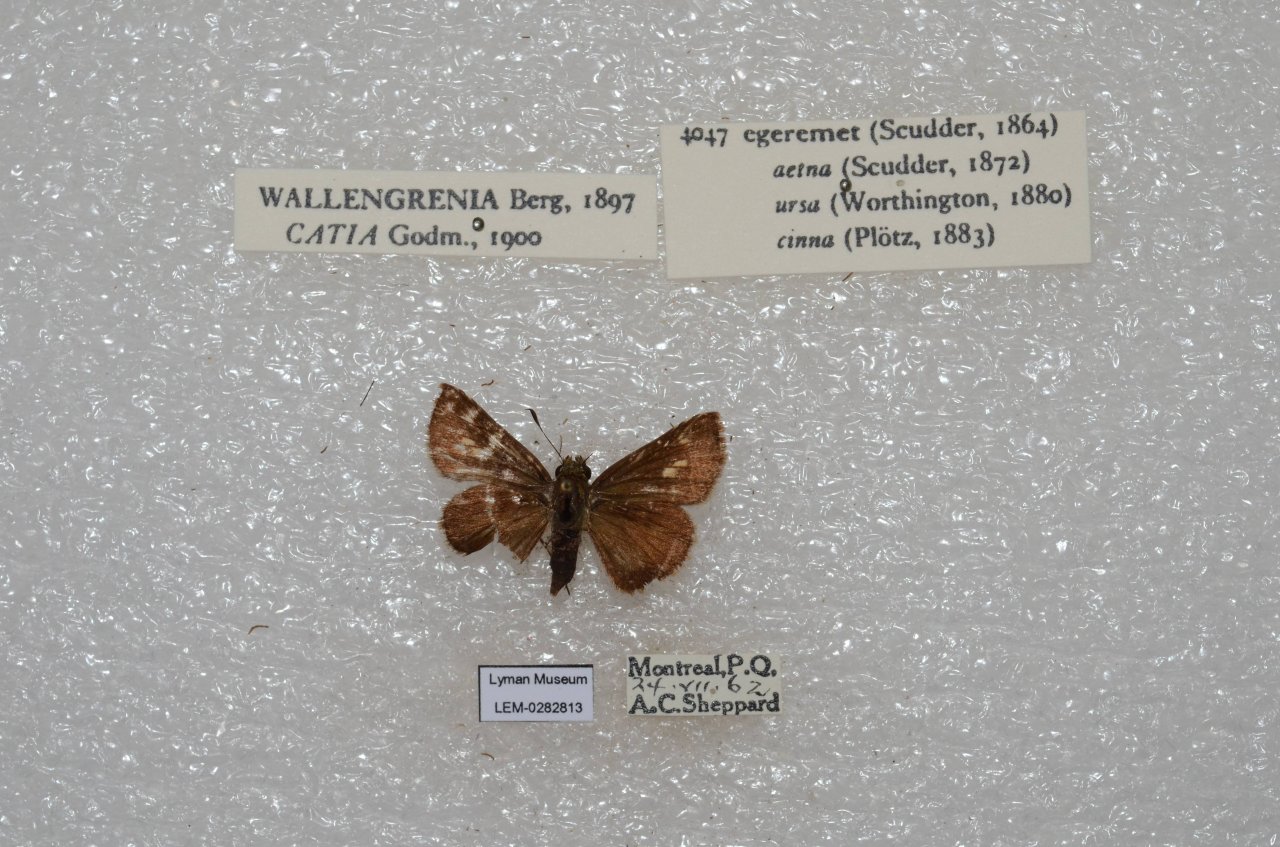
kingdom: Animalia
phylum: Arthropoda
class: Insecta
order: Lepidoptera
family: Hesperiidae
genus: Polites
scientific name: Polites egeremet
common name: Northern Broken-Dash
